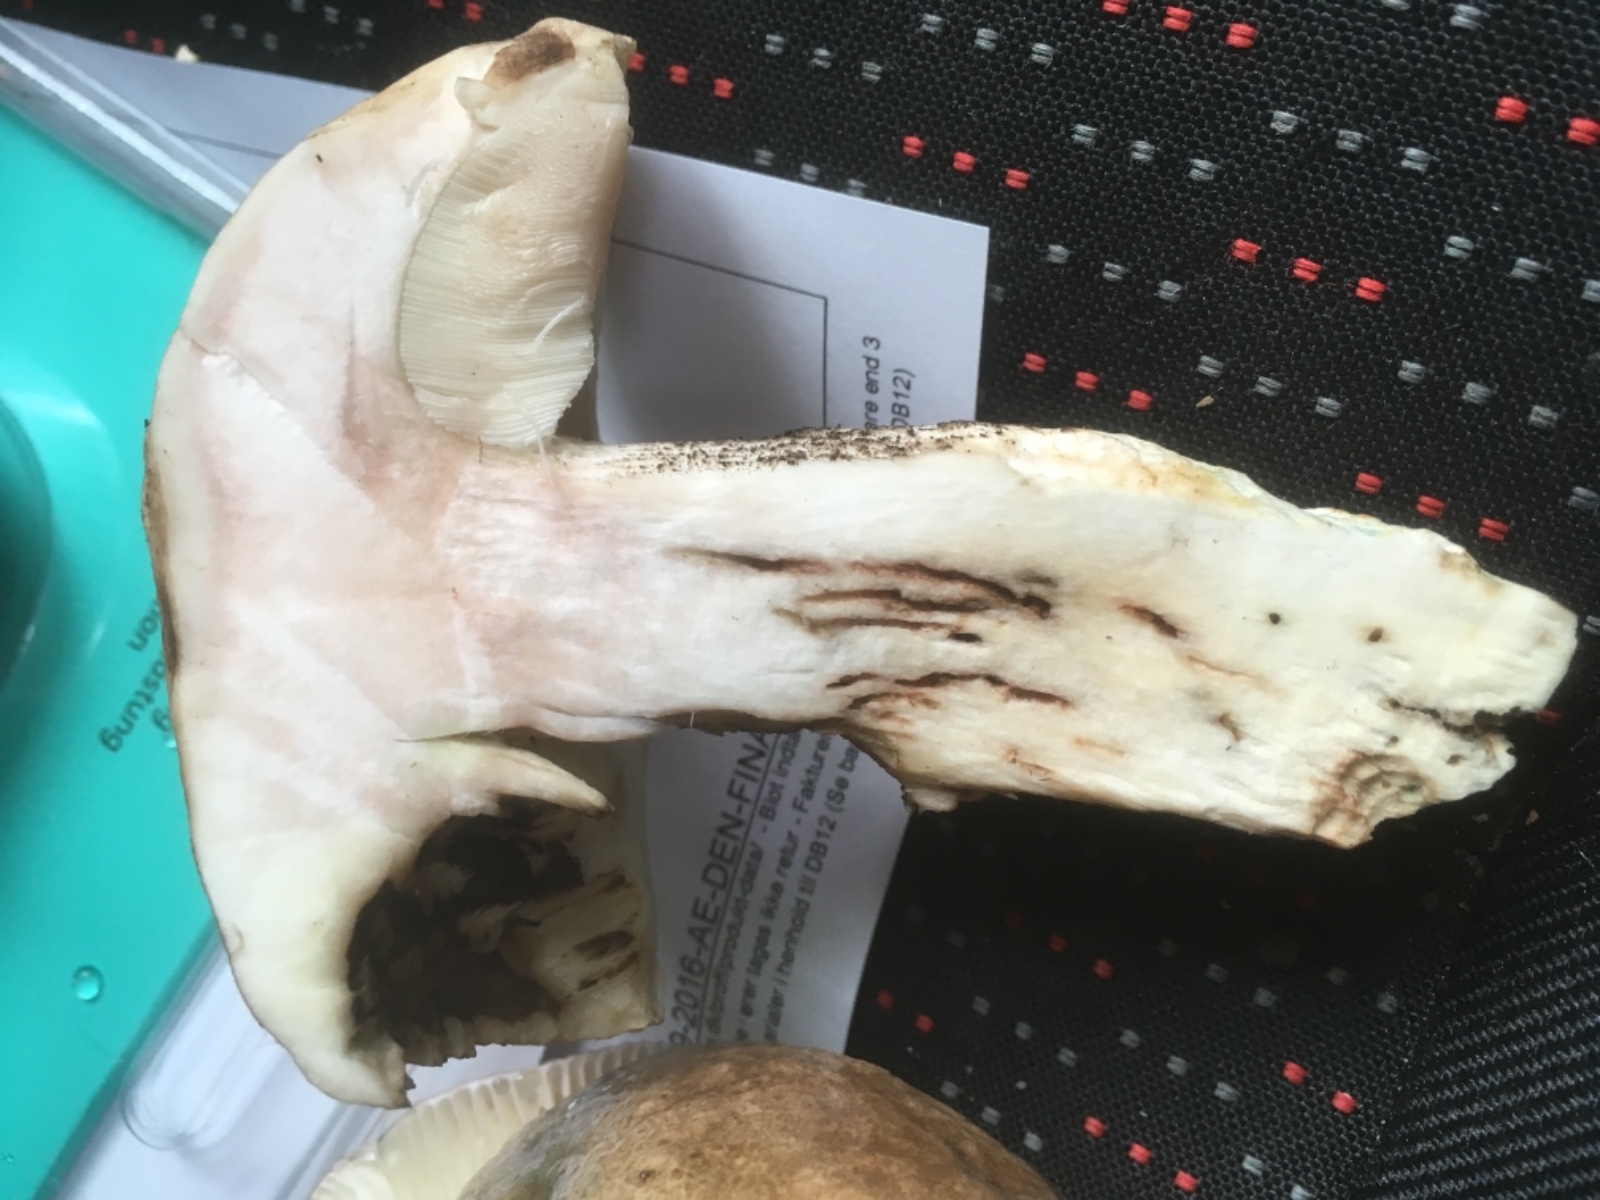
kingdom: Fungi
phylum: Basidiomycota
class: Agaricomycetes
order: Boletales
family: Boletaceae
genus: Leccinellum
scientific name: Leccinellum pseudoscabrum
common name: avnbøg-skælrørhat
